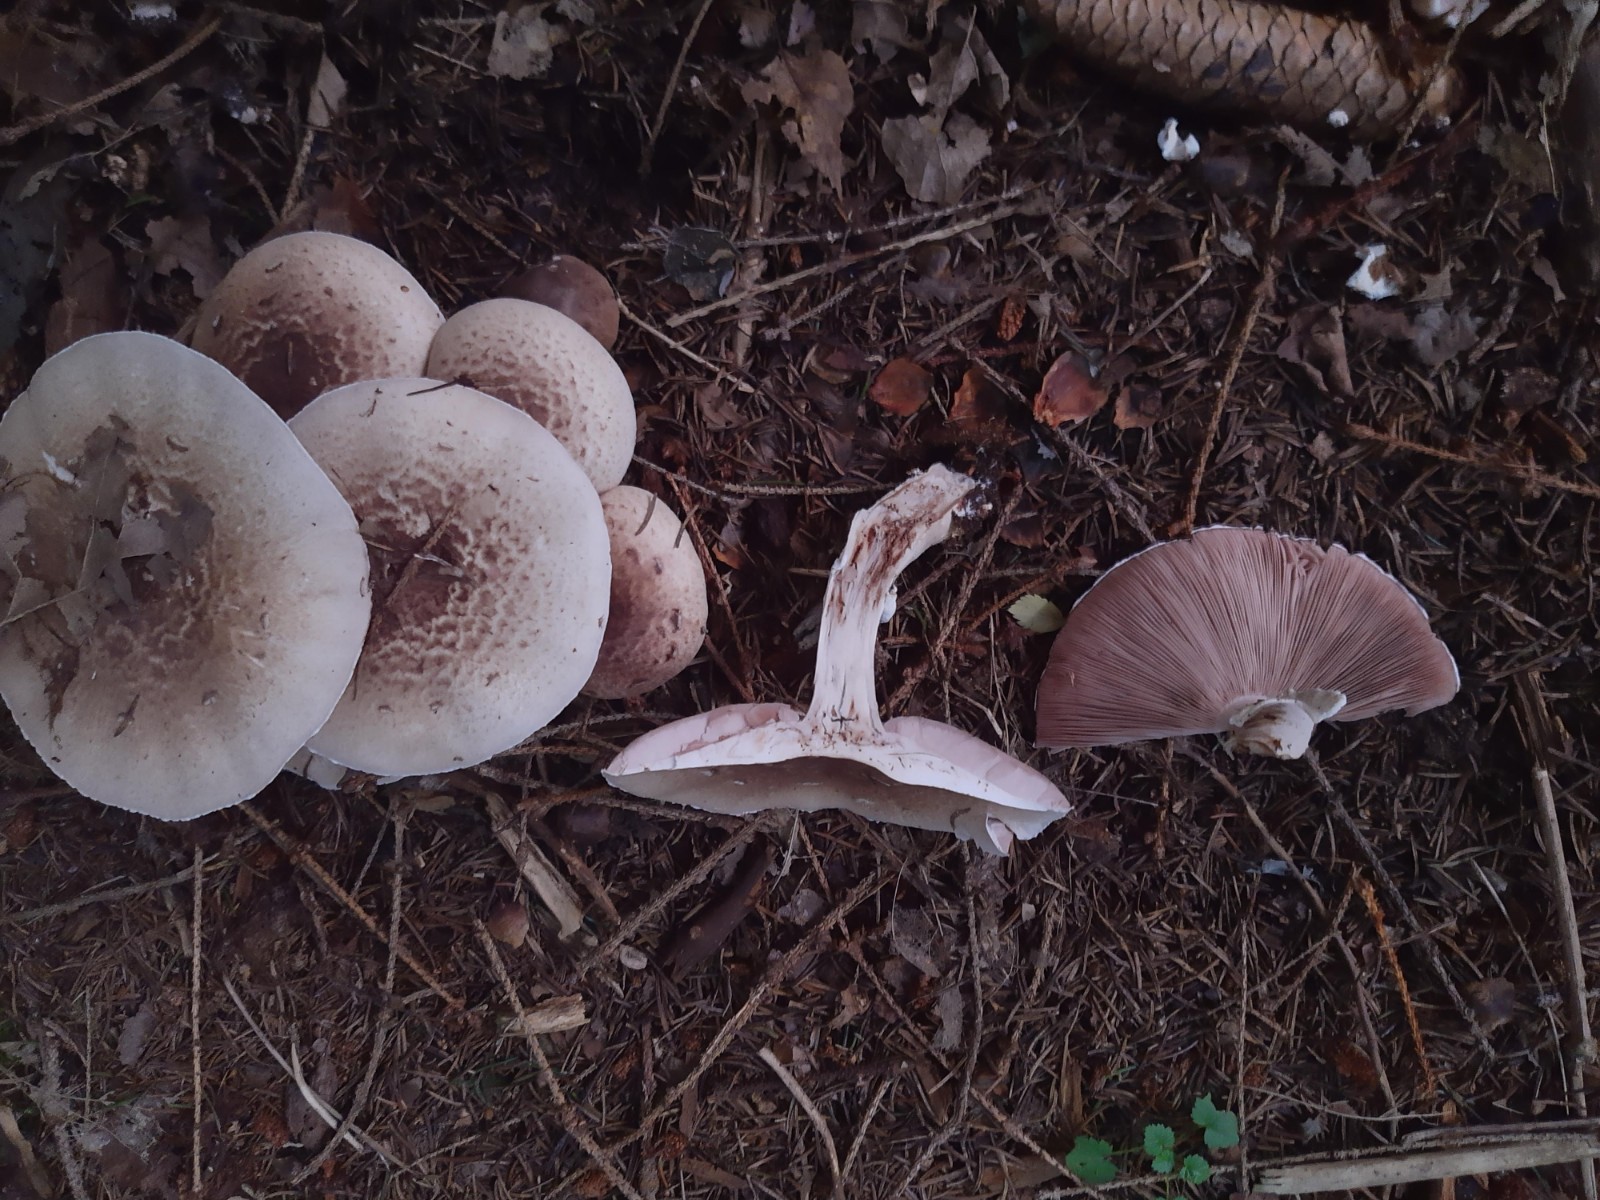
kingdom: Fungi
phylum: Basidiomycota
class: Agaricomycetes
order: Agaricales
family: Agaricaceae
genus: Agaricus
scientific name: Agaricus impudicus
